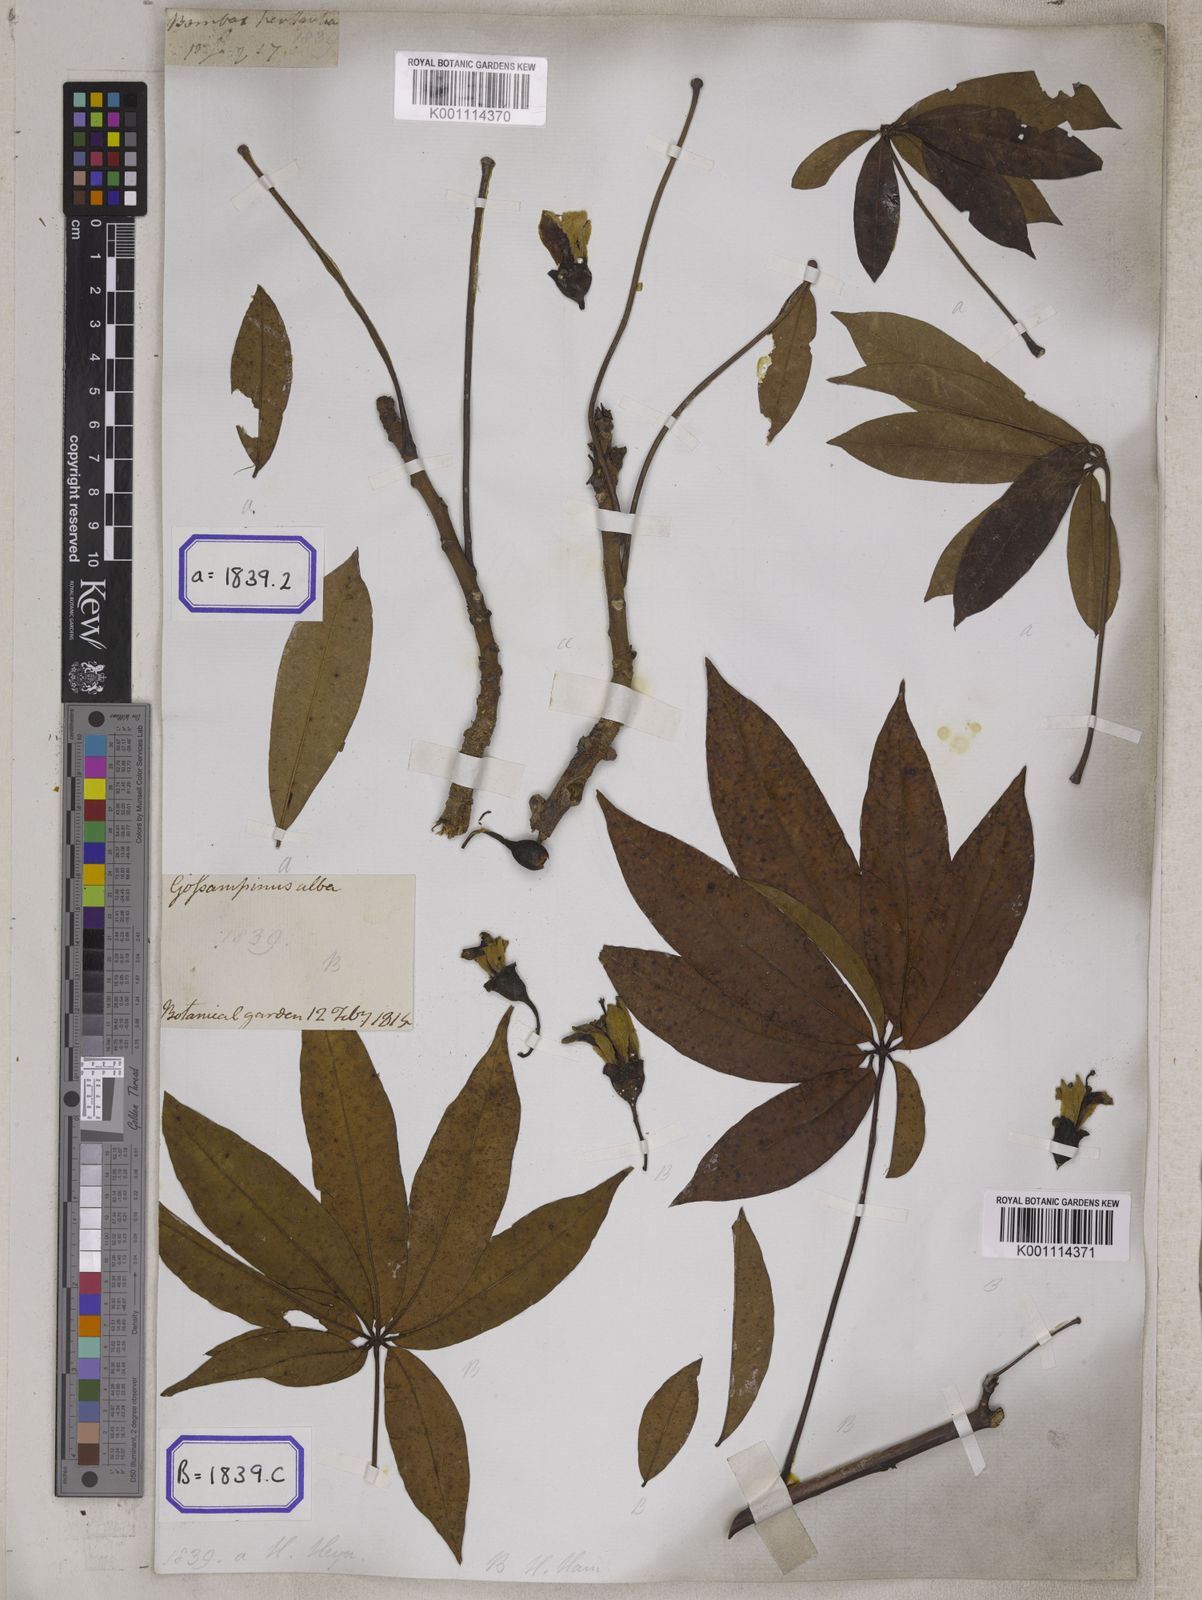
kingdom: Plantae
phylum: Tracheophyta
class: Magnoliopsida
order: Malvales
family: Malvaceae
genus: Ceiba
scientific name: Ceiba pentandra
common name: Kapok
